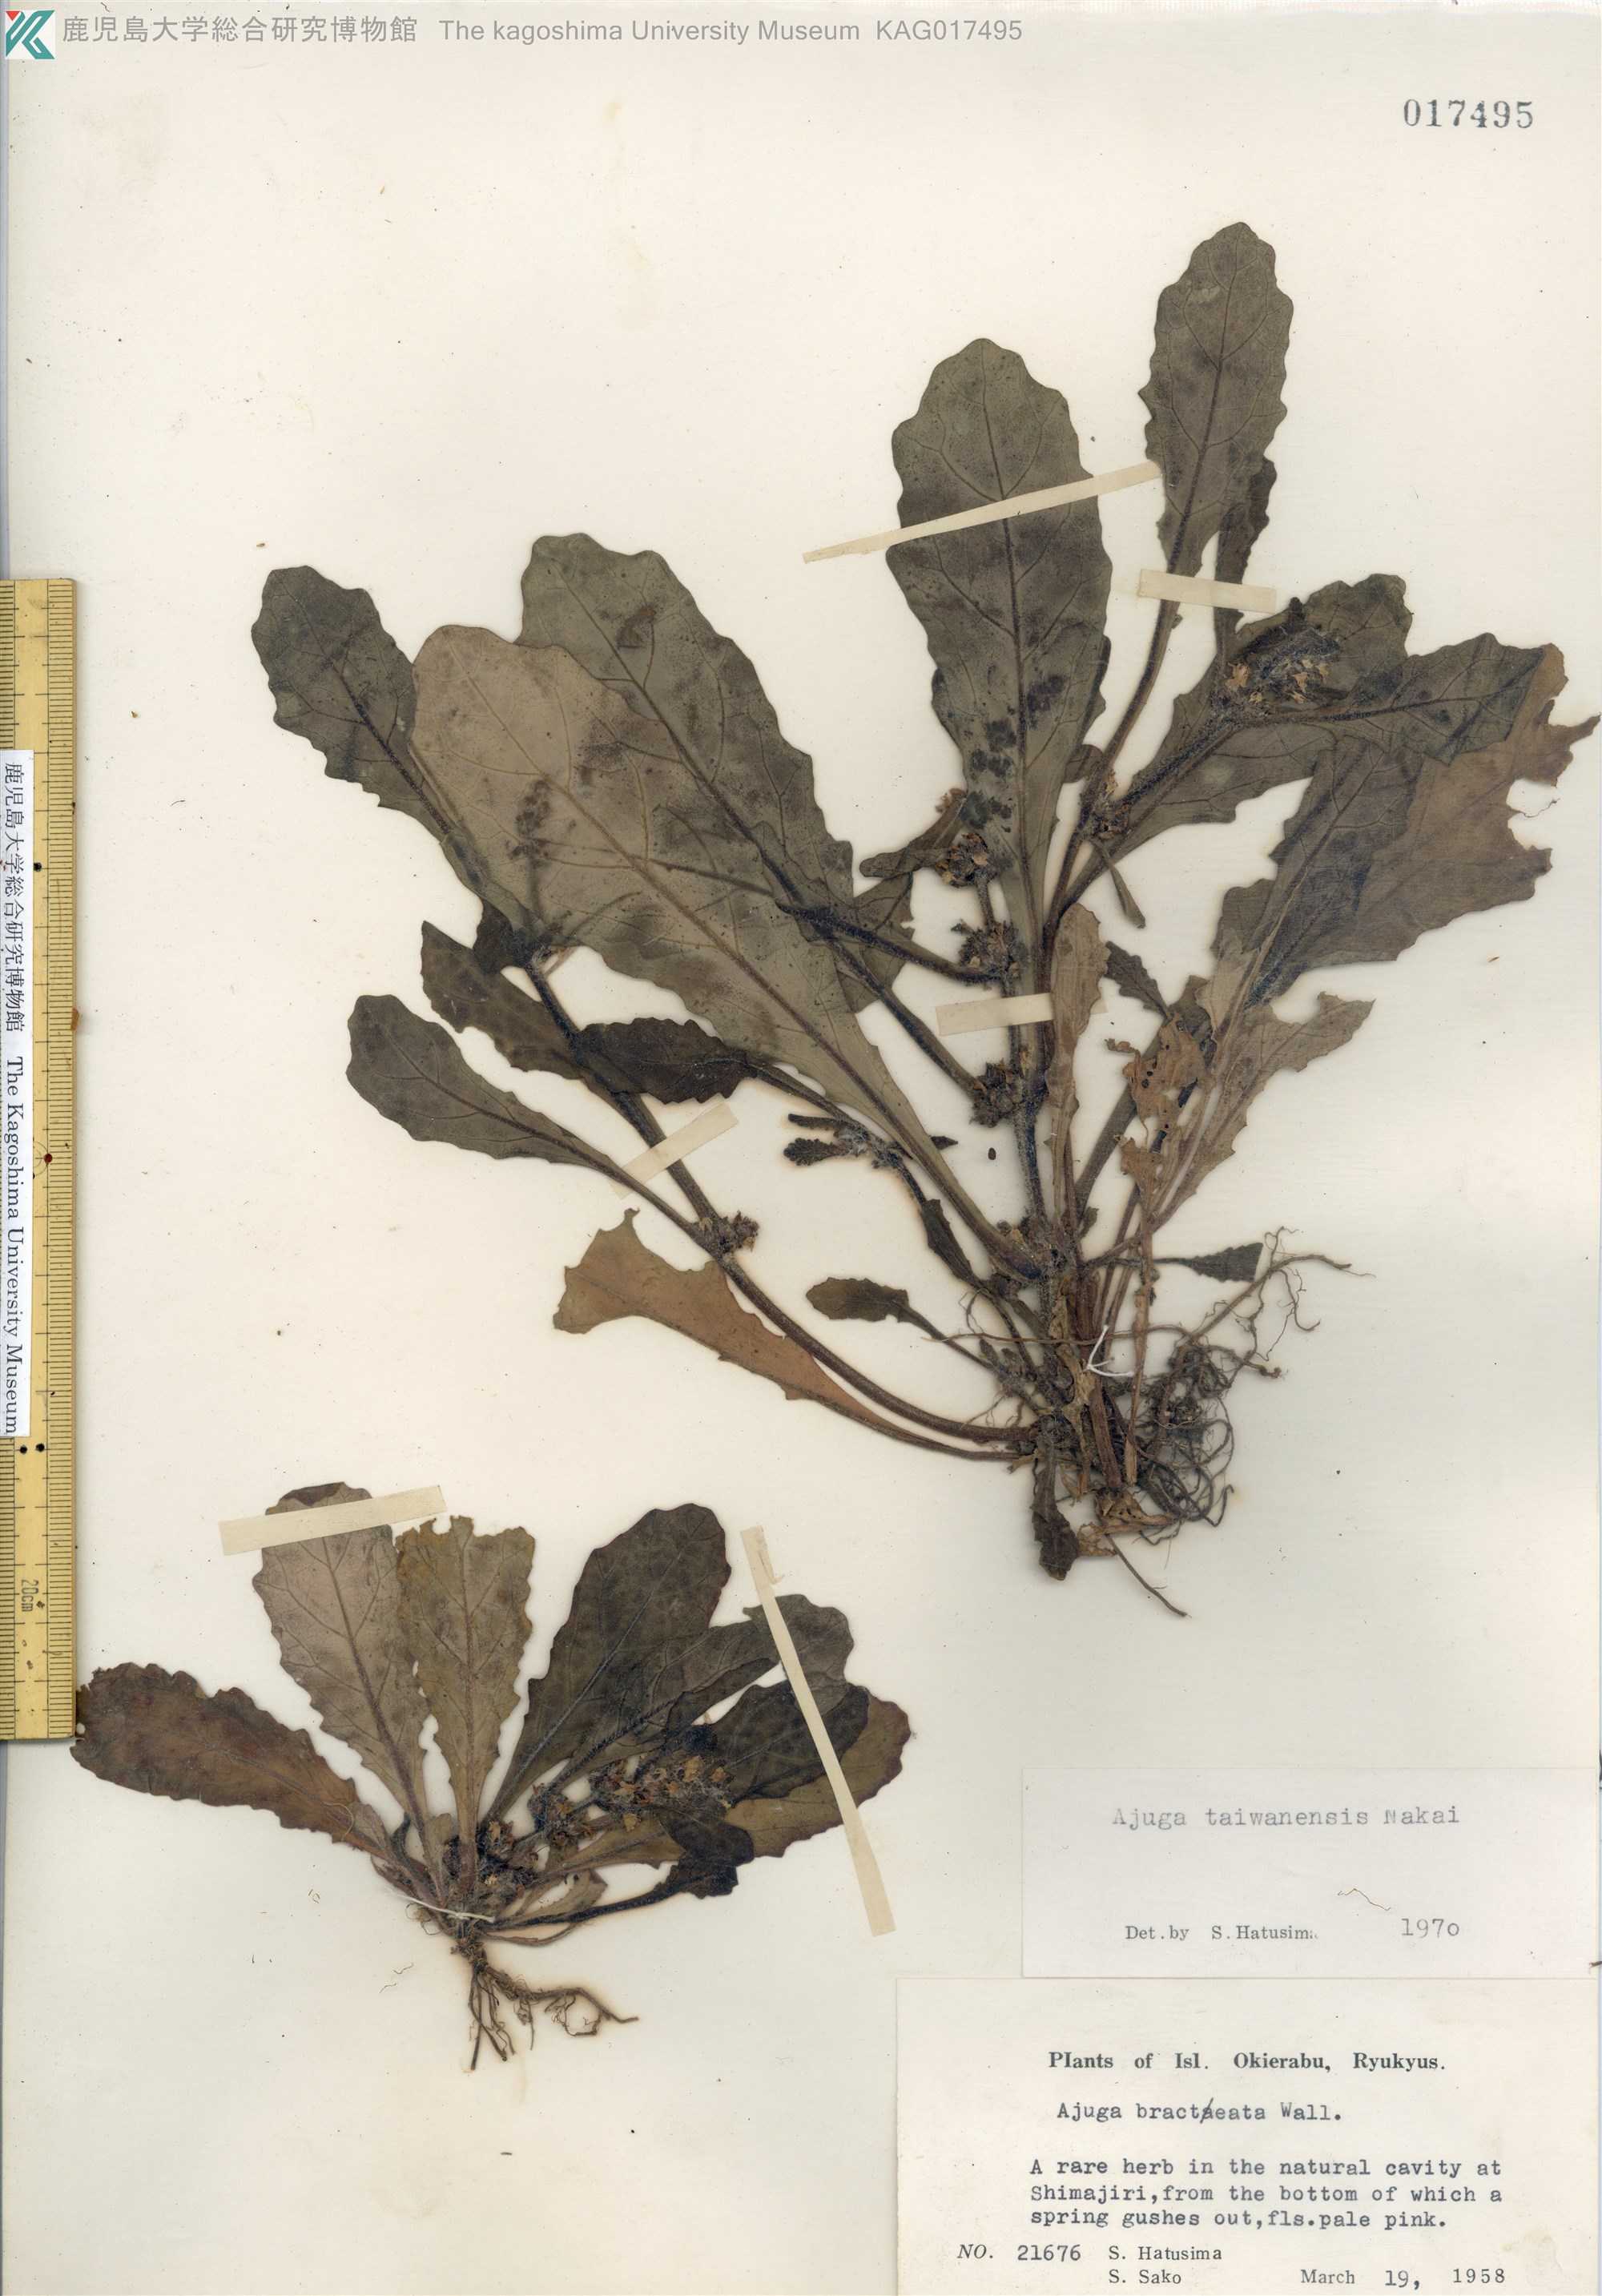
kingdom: Plantae
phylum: Tracheophyta
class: Magnoliopsida
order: Lamiales
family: Lamiaceae
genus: Ajuga
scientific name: Ajuga taiwanensis
